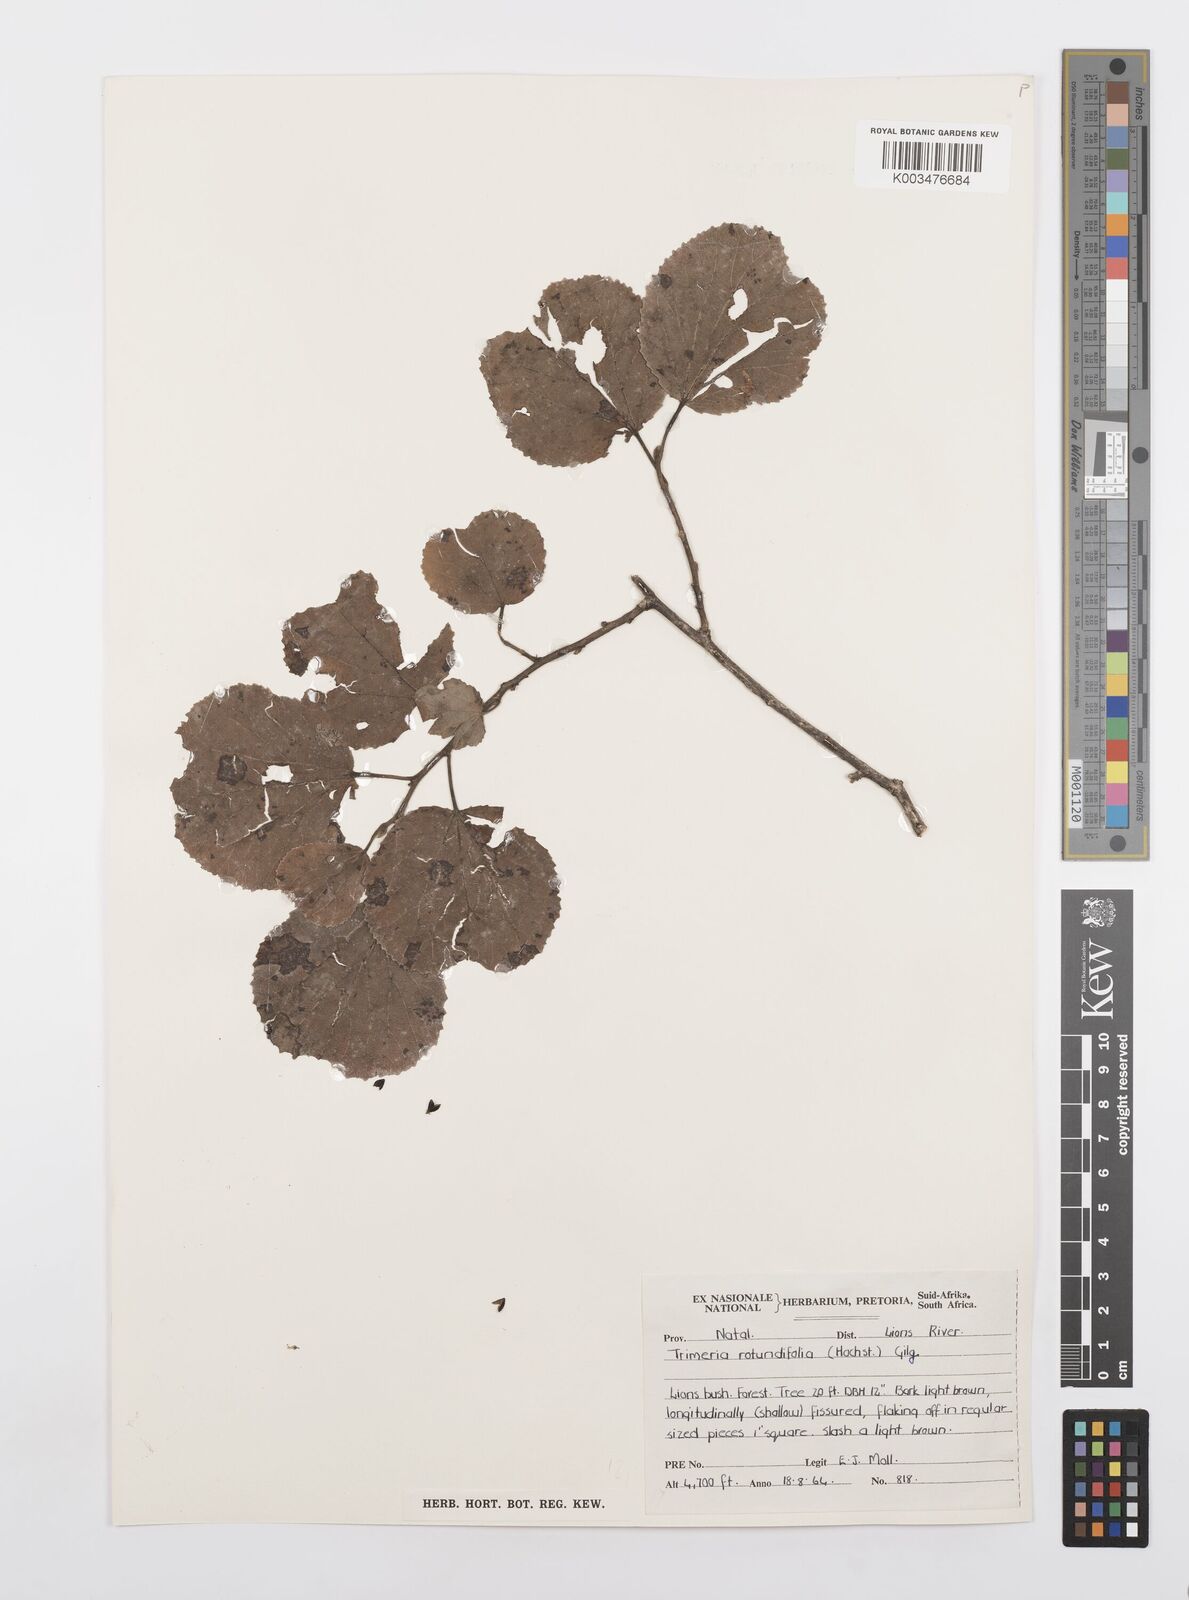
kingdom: Plantae
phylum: Tracheophyta
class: Magnoliopsida
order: Malpighiales
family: Salicaceae
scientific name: Salicaceae
